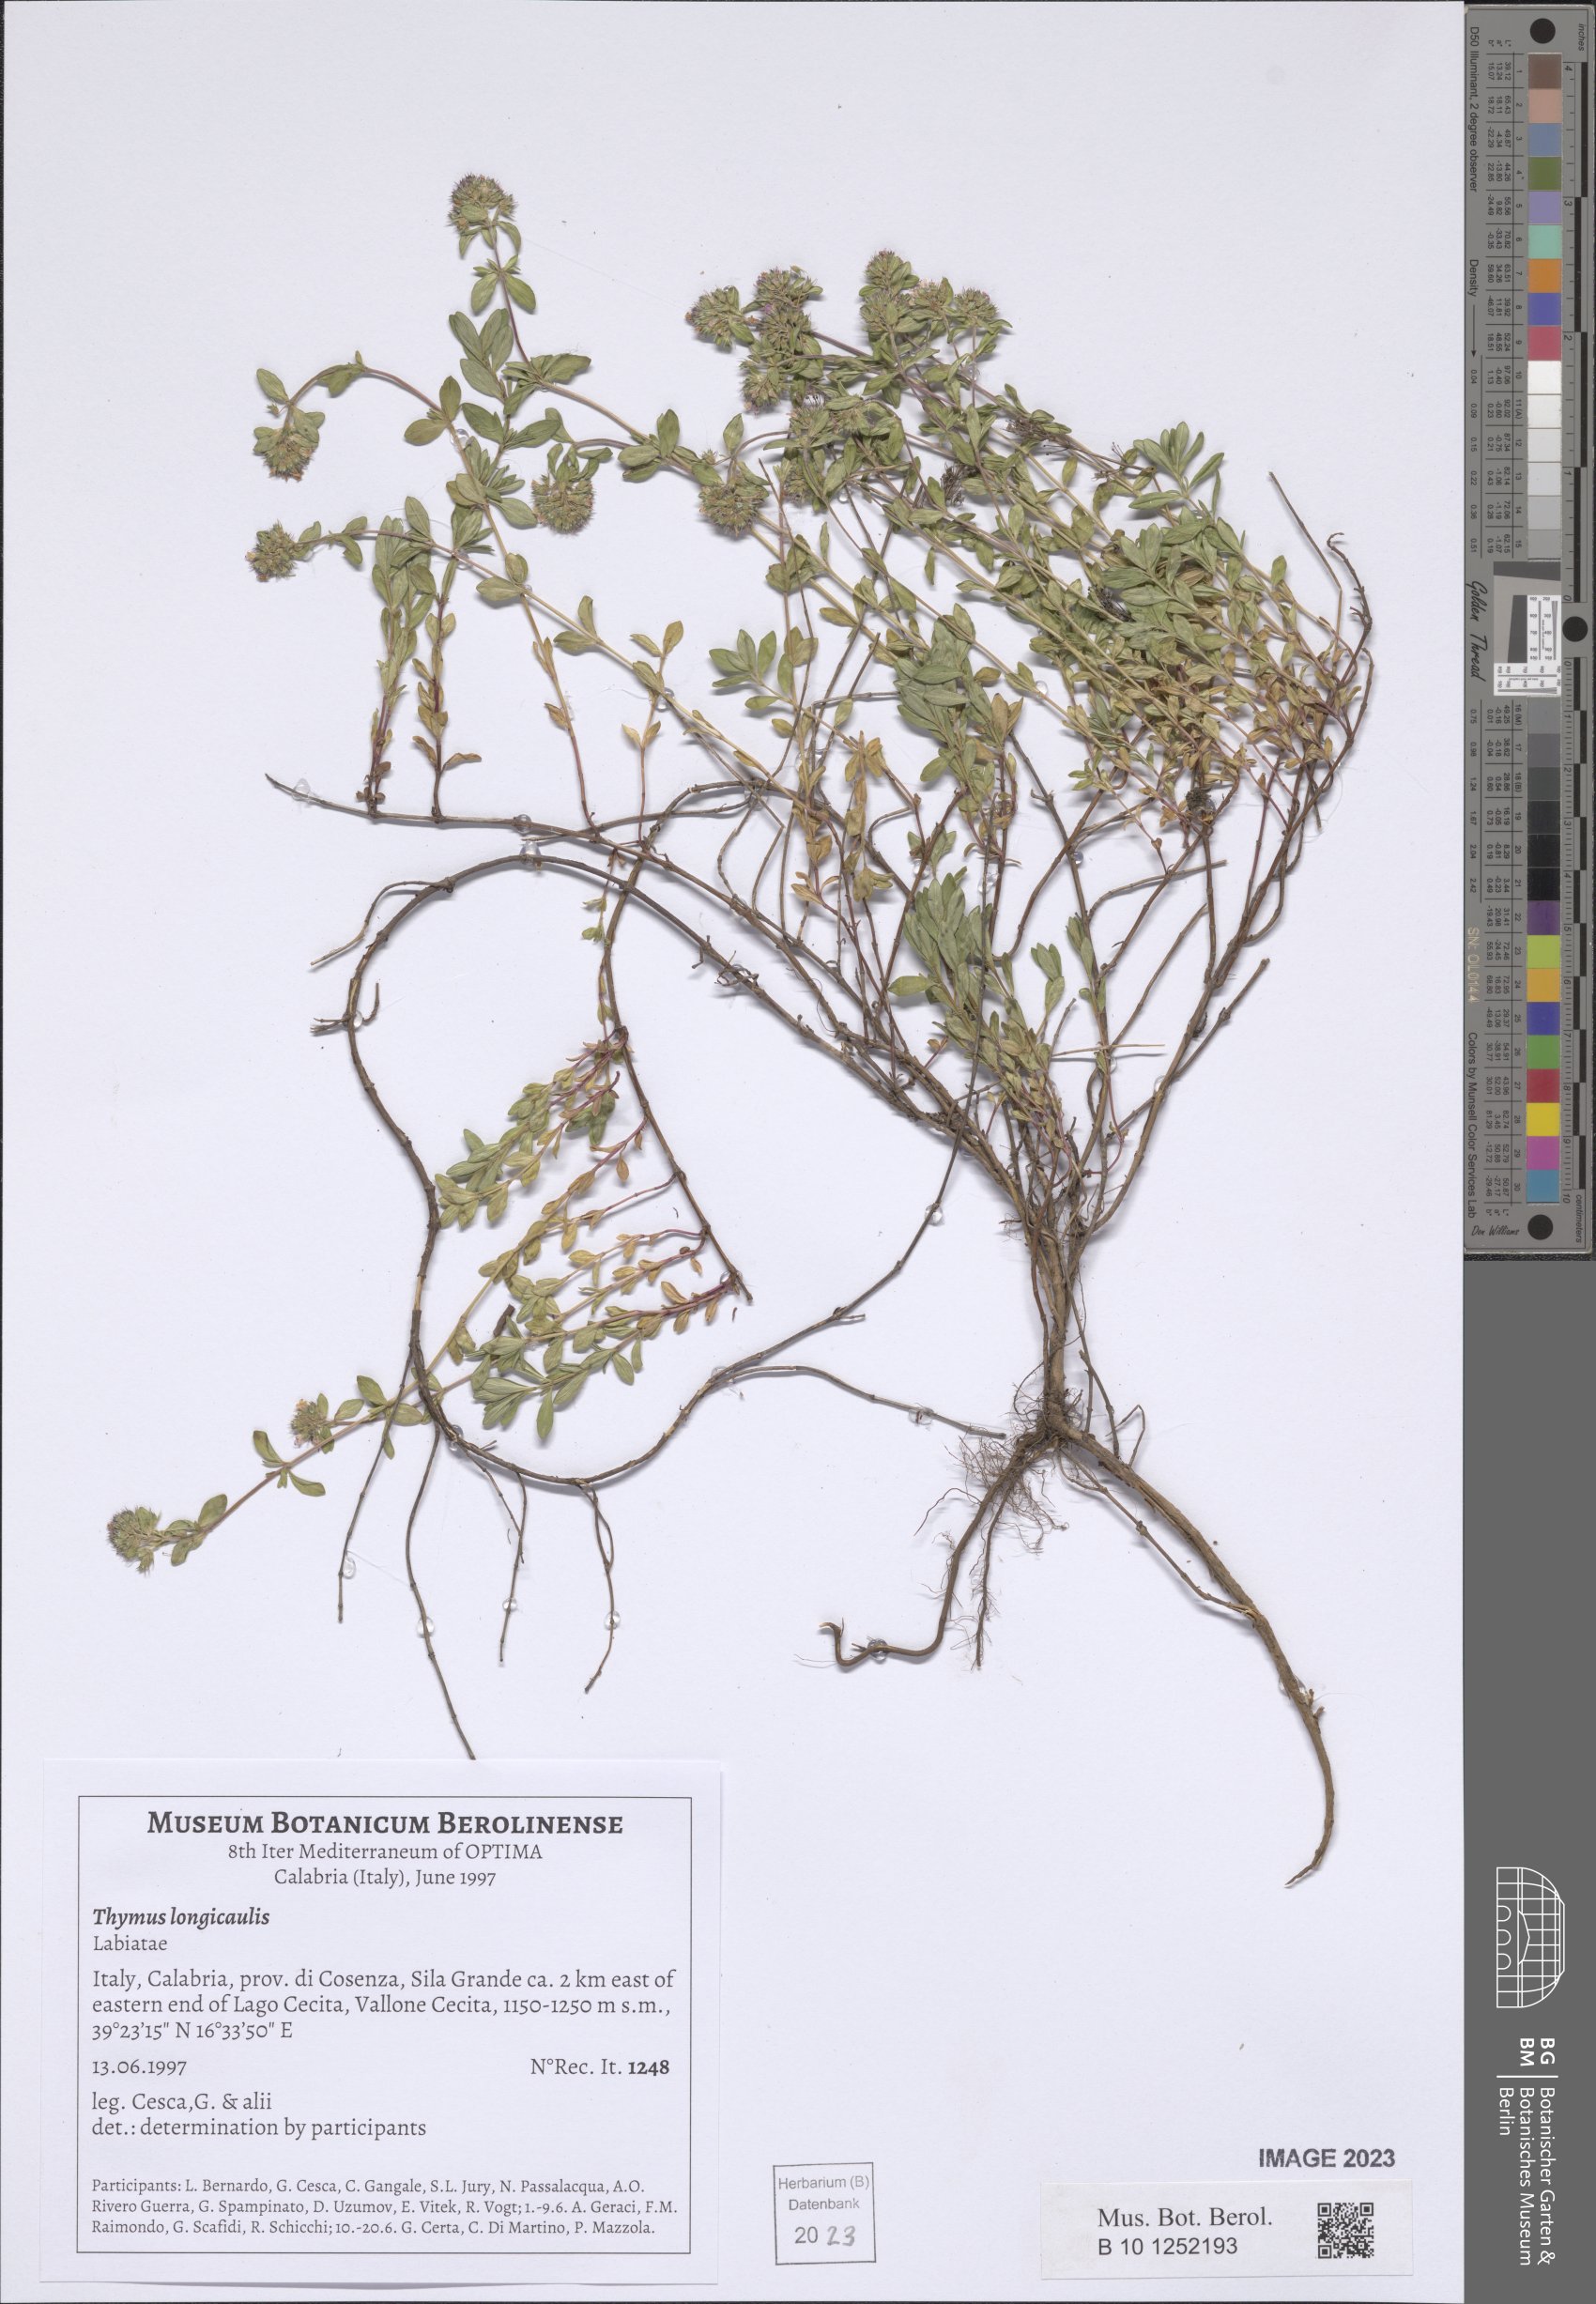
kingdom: Plantae
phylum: Tracheophyta
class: Magnoliopsida
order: Lamiales
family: Lamiaceae
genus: Thymus
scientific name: Thymus longicaulis
